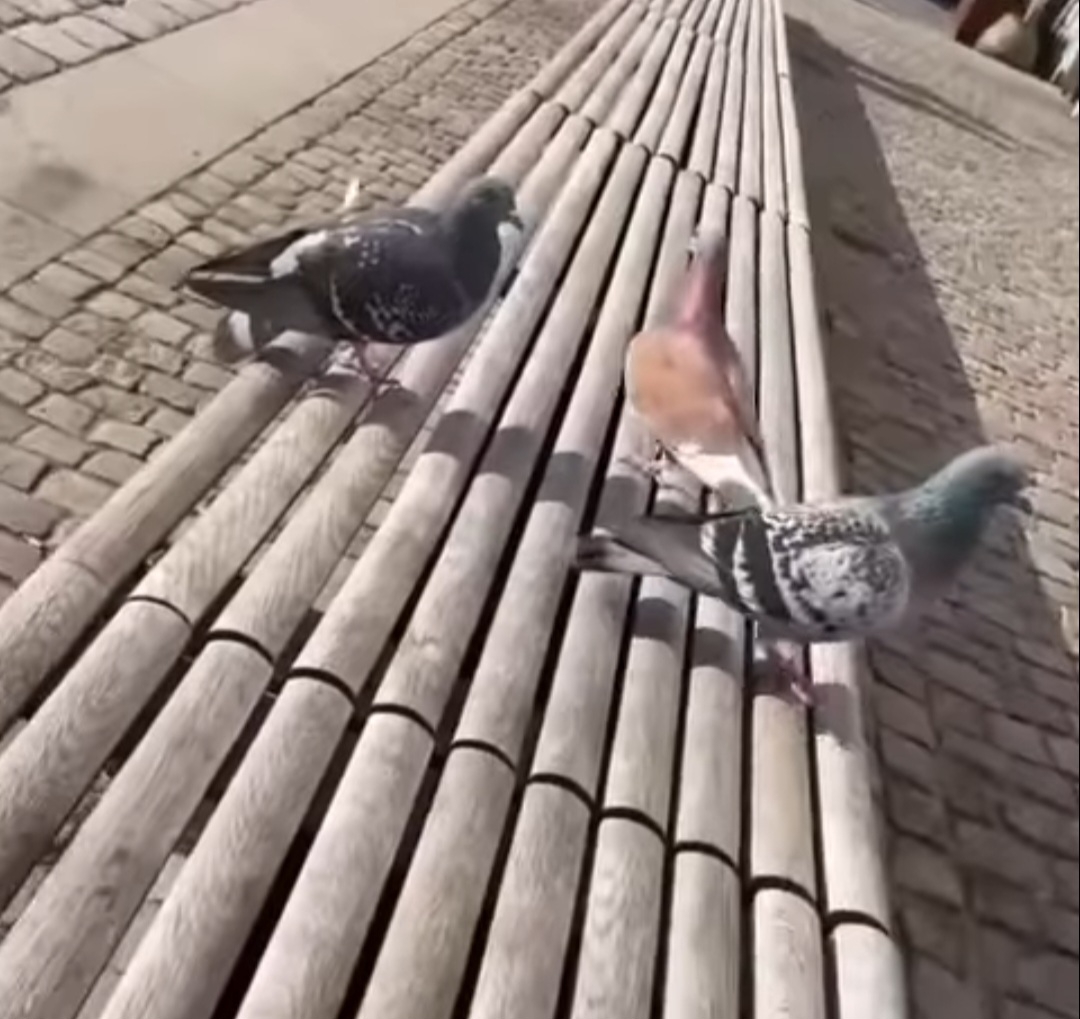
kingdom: Animalia
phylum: Chordata
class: Aves
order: Columbiformes
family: Columbidae
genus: Columba
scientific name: Columba livia
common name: Tamdue
